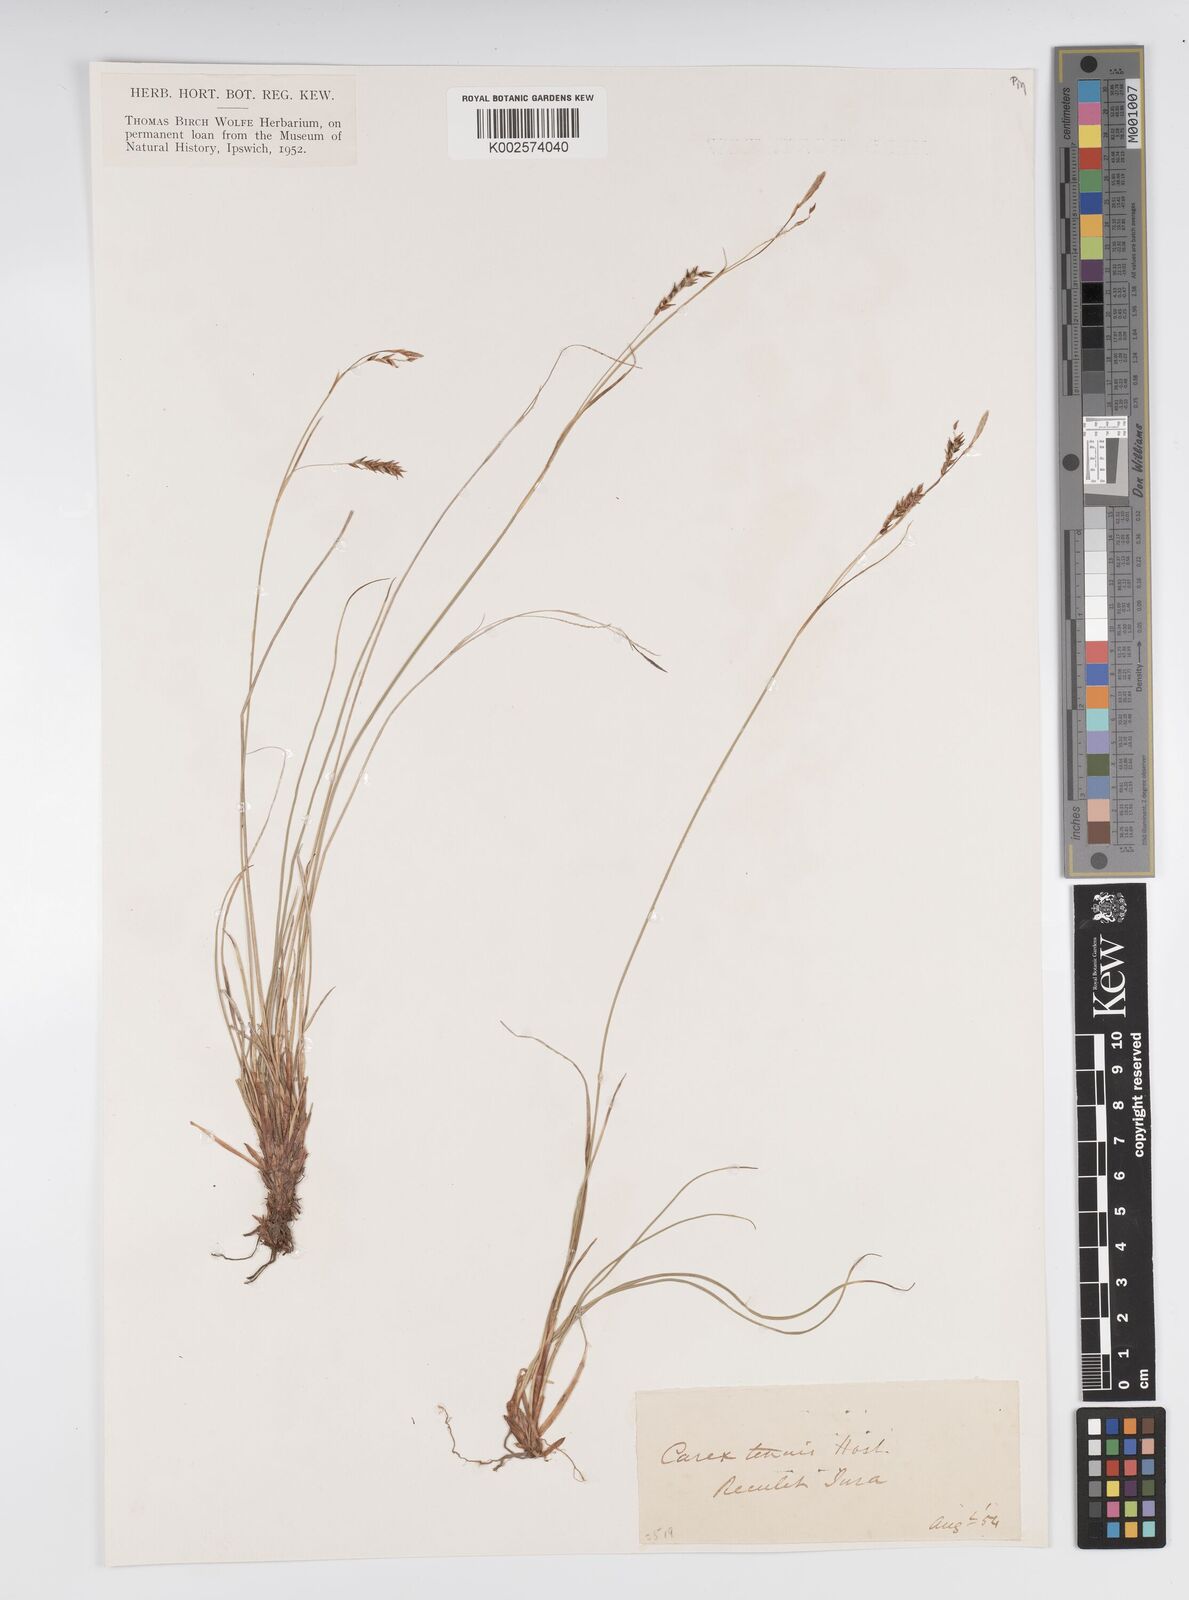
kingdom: Plantae
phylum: Tracheophyta
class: Liliopsida
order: Poales
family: Cyperaceae
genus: Carex
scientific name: Carex brachystachys
